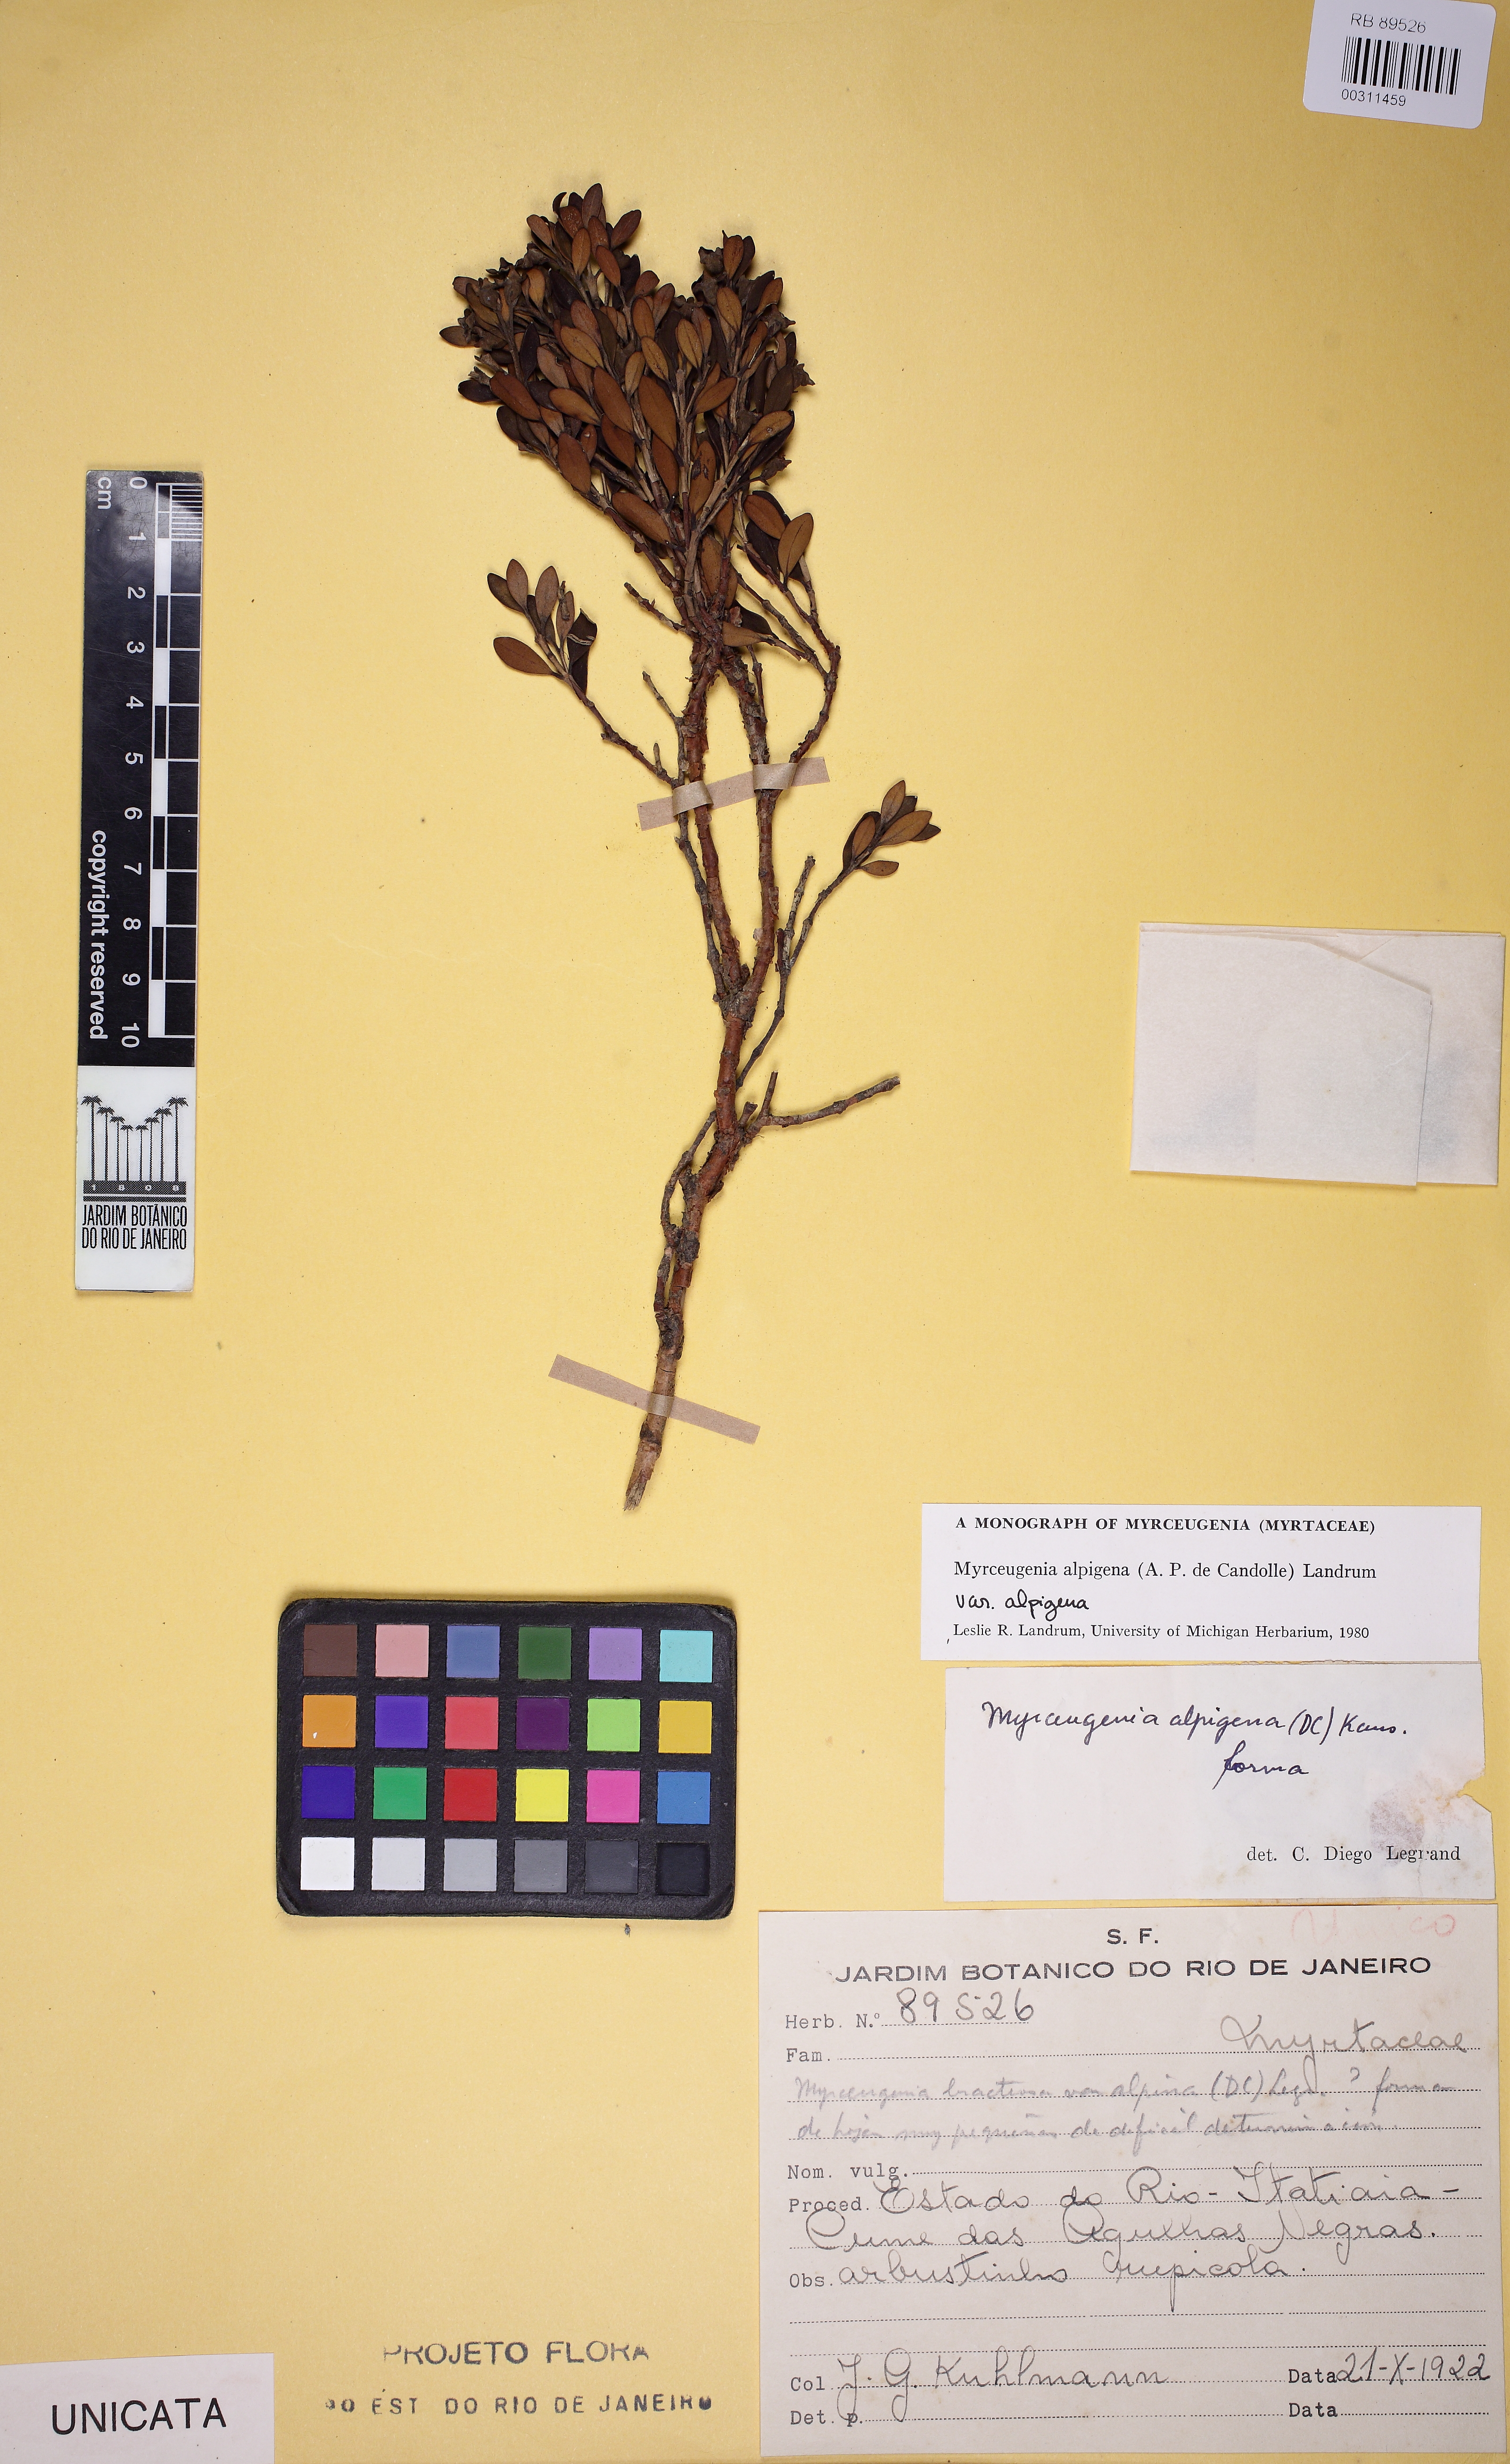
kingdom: Plantae
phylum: Tracheophyta
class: Magnoliopsida
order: Myrtales
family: Myrtaceae
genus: Myrceugenia
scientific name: Myrceugenia alpigena
